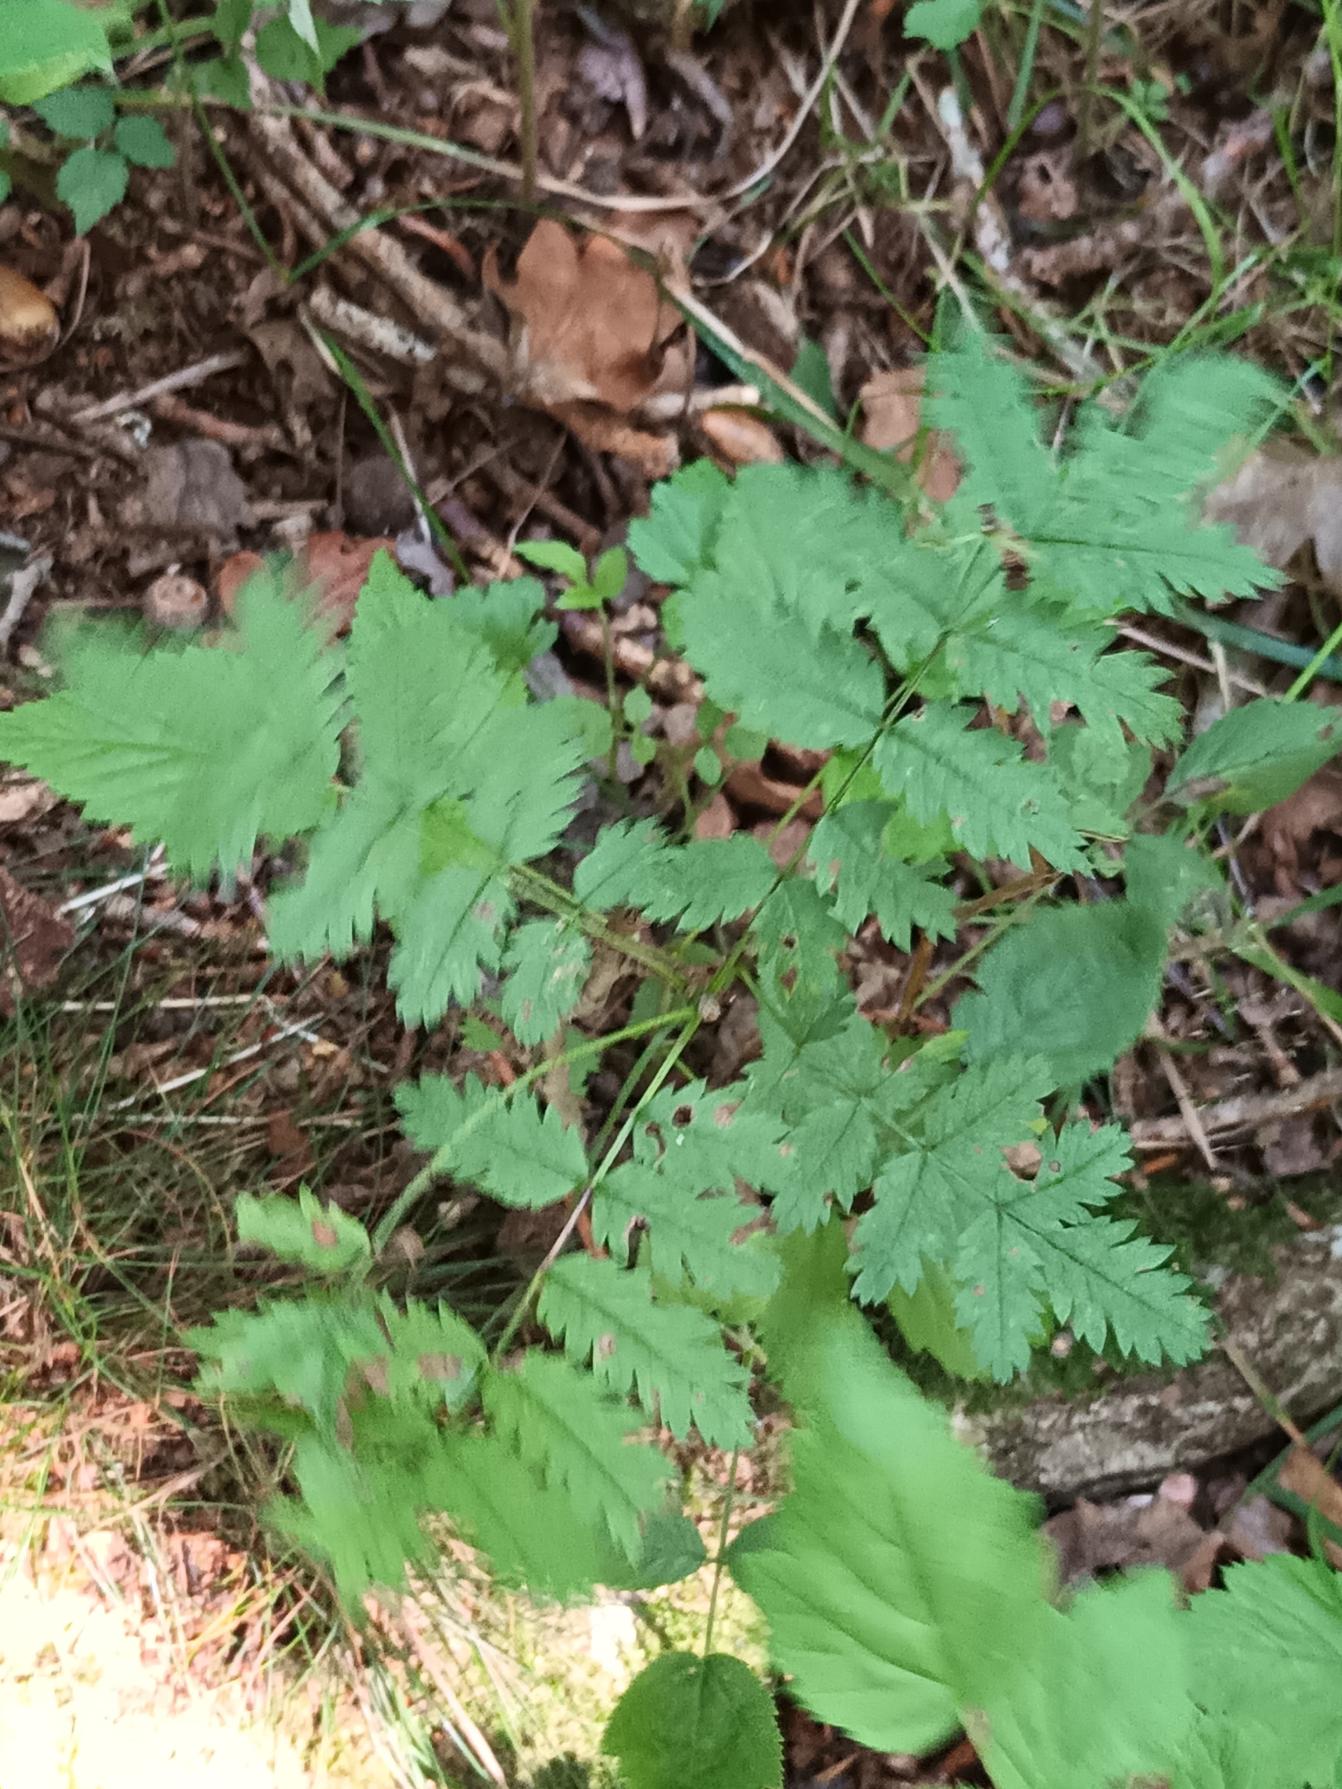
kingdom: Plantae
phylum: Tracheophyta
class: Magnoliopsida
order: Rosales
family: Rosaceae
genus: Sorbus
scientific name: Sorbus aucuparia
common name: Almindelig røn
